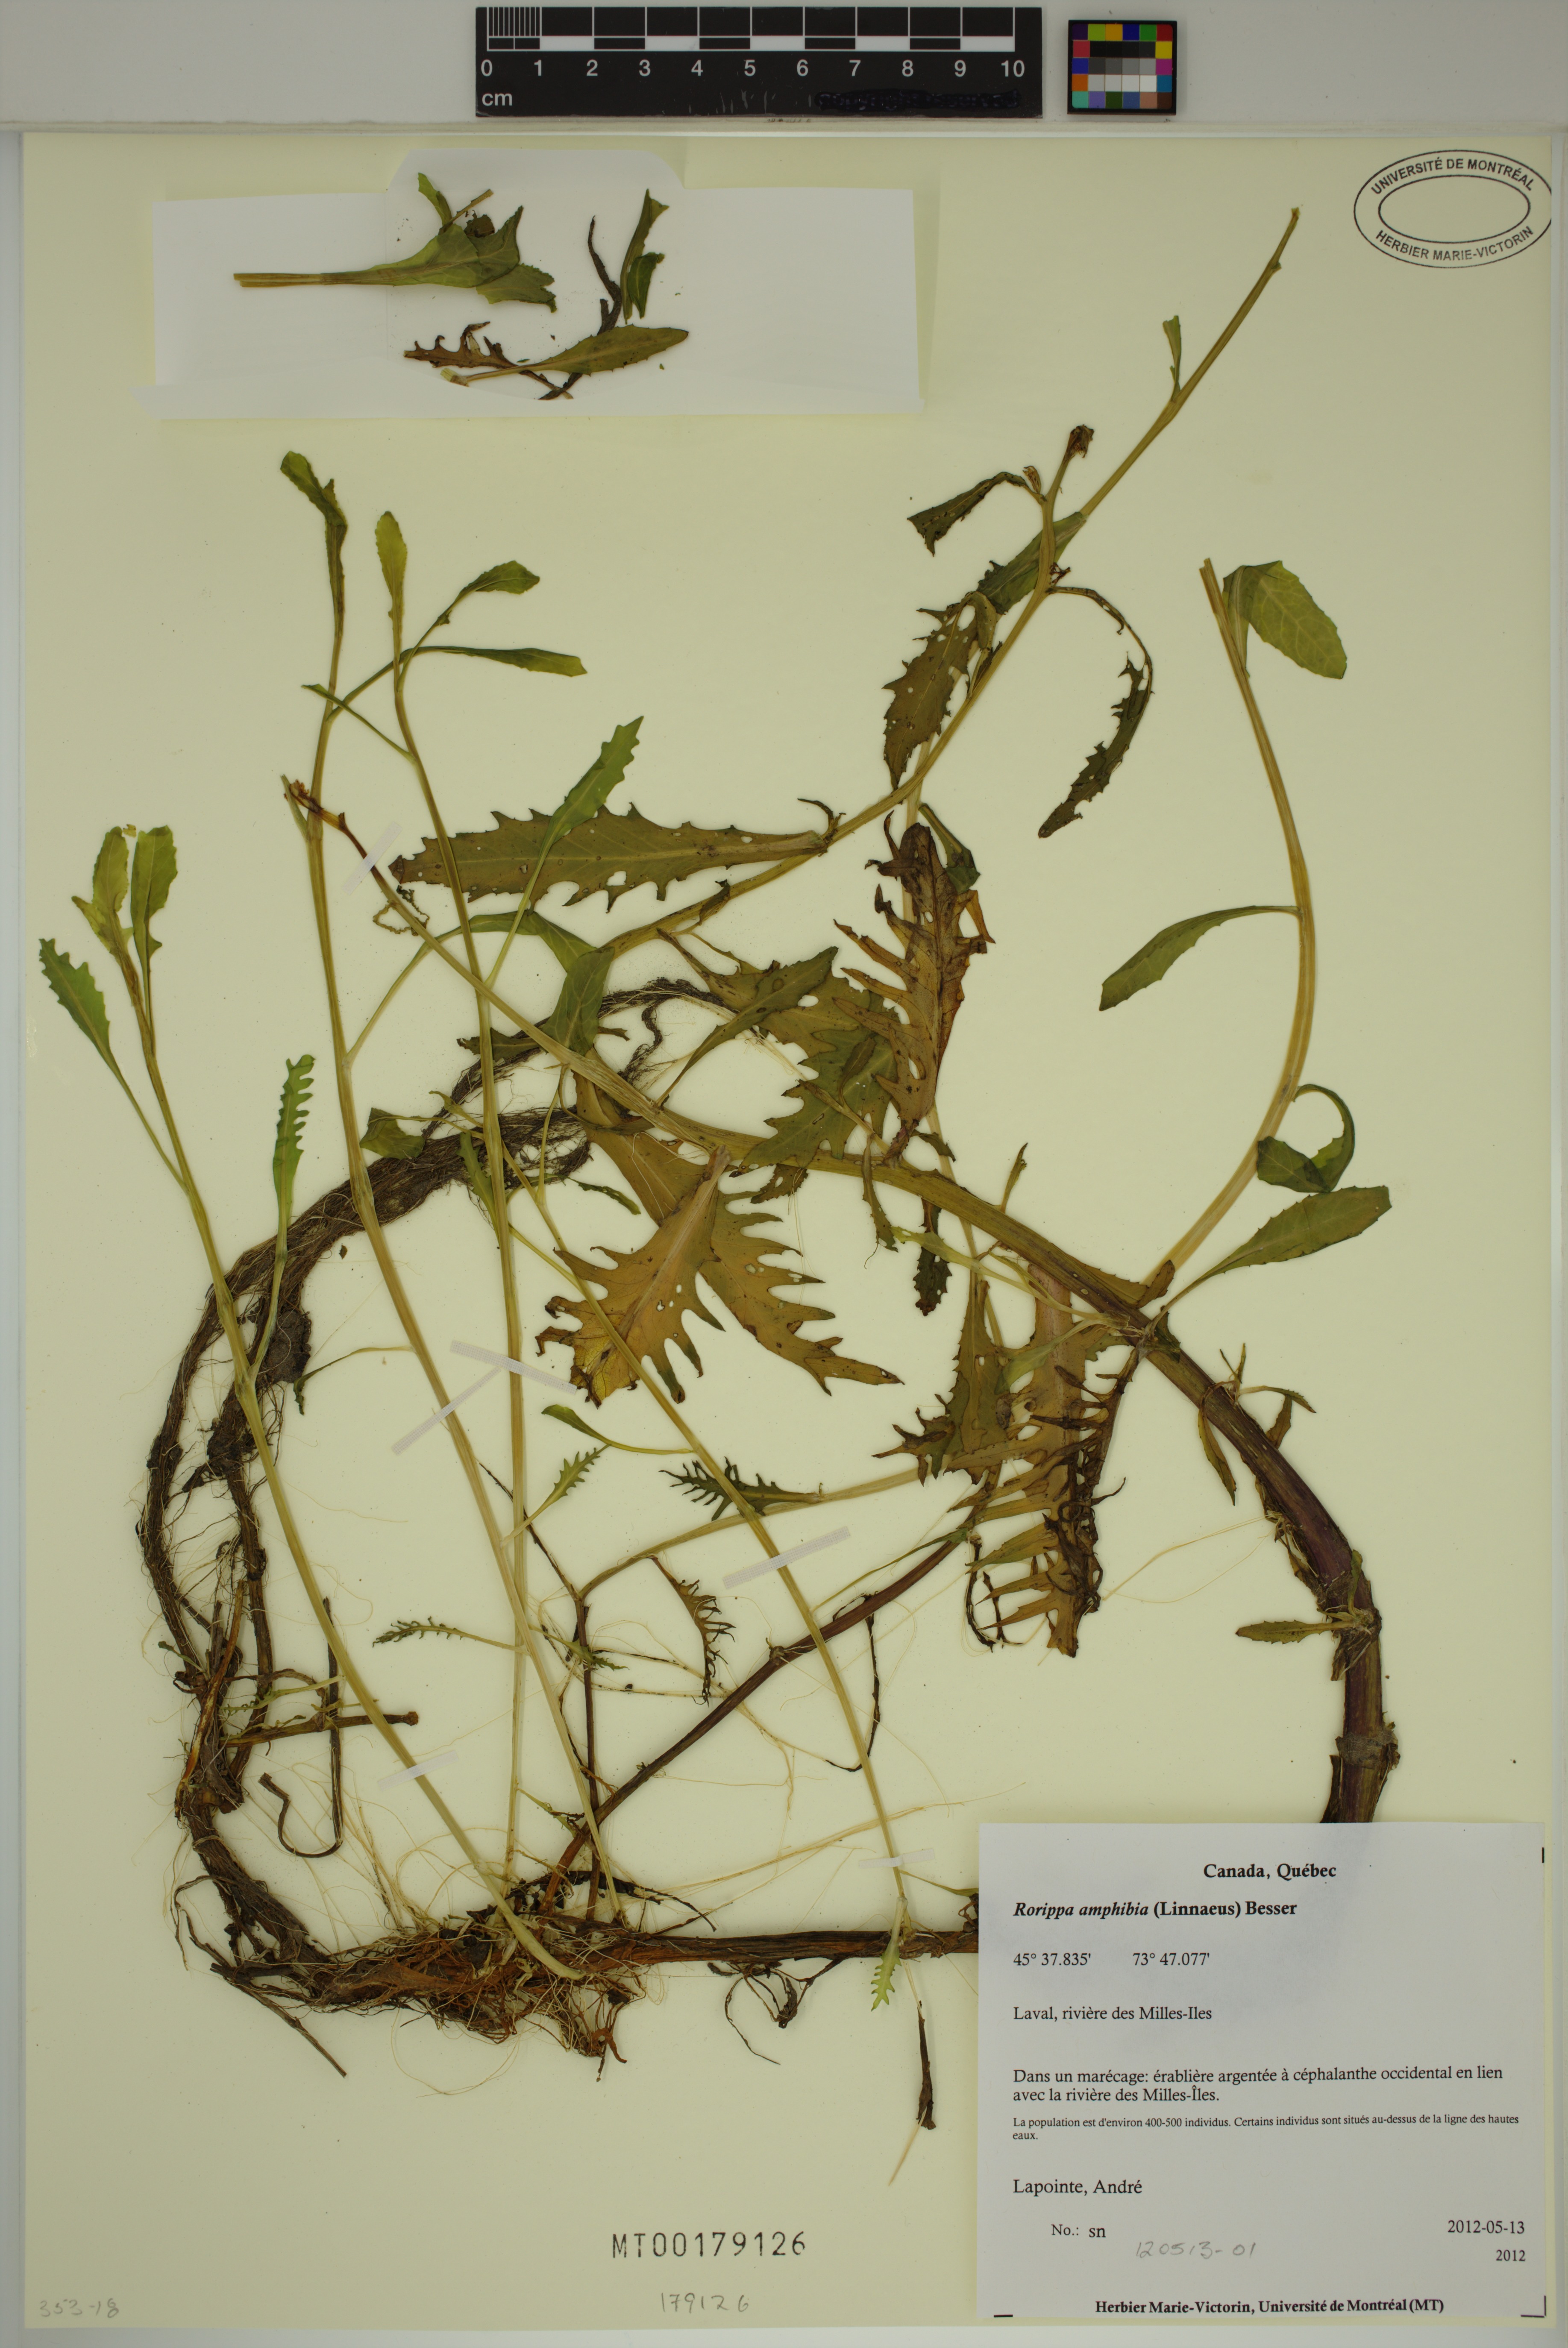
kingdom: Plantae
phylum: Tracheophyta
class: Magnoliopsida
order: Brassicales
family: Brassicaceae
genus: Rorippa
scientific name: Rorippa amphibia
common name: Great yellow-cress
